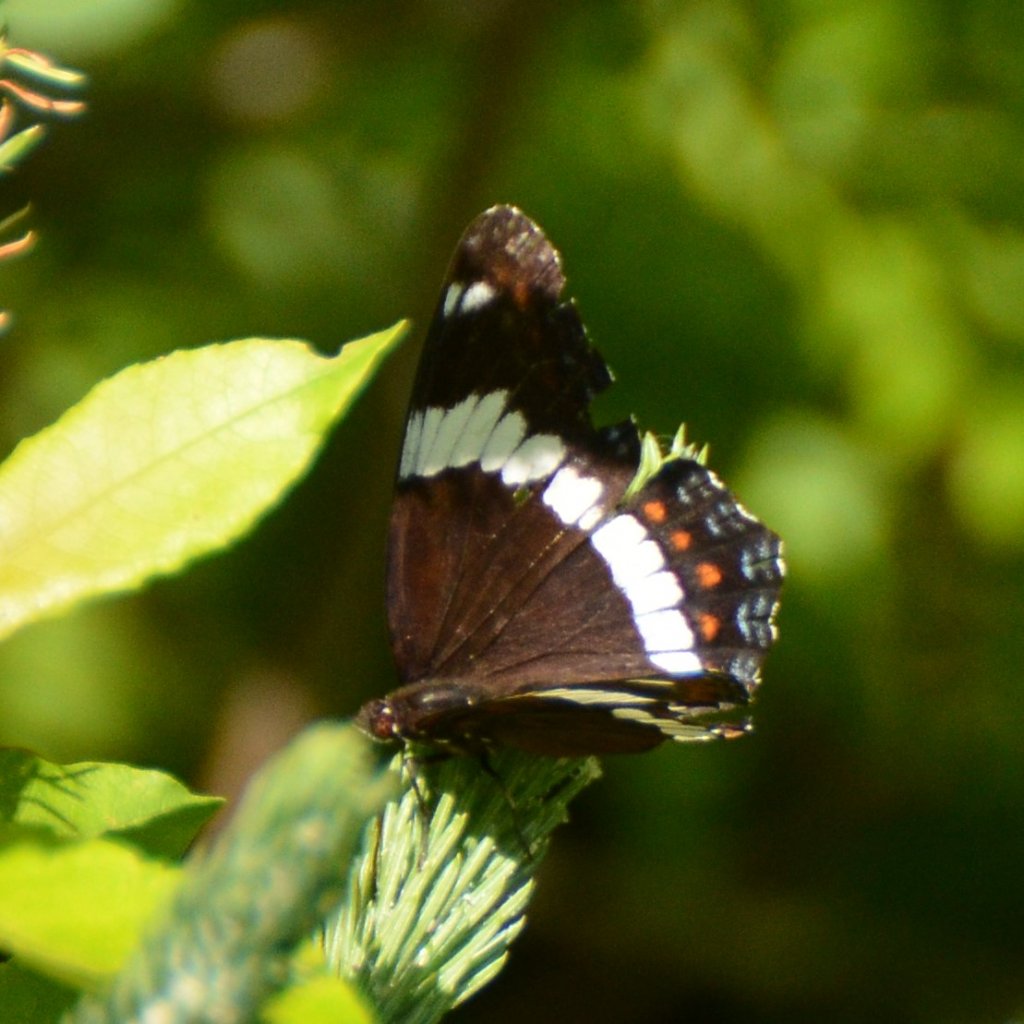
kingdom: Animalia
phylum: Arthropoda
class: Insecta
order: Lepidoptera
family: Nymphalidae
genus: Limenitis
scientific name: Limenitis arthemis
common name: Red-spotted Admiral
